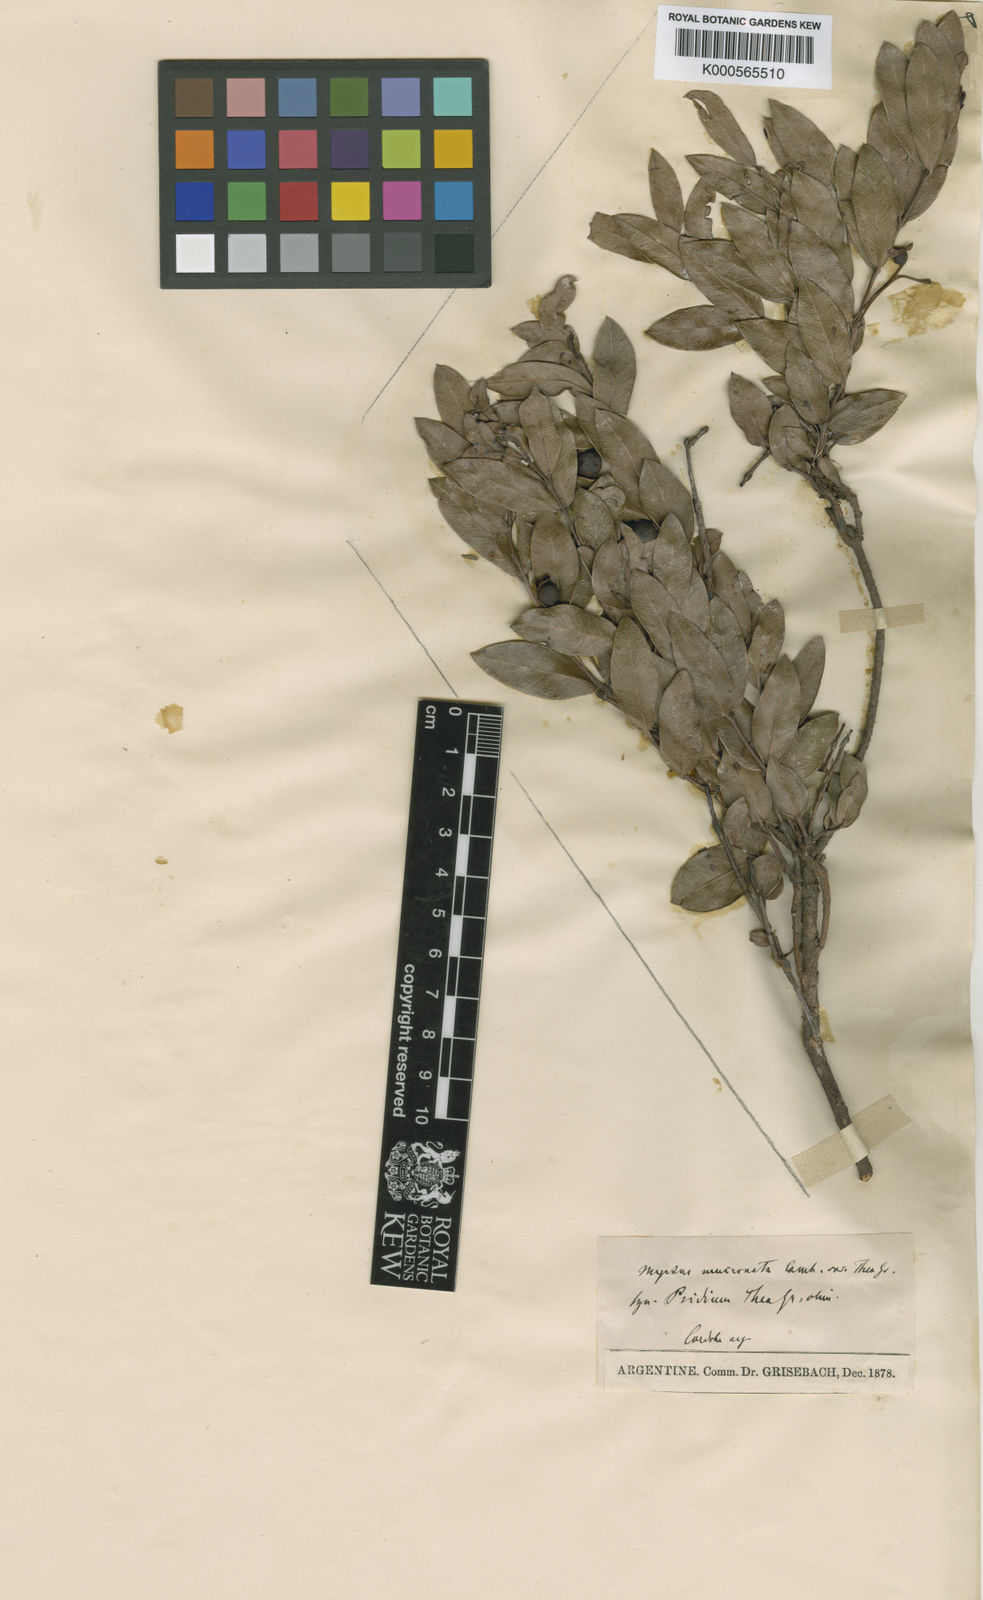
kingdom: Plantae
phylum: Tracheophyta
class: Magnoliopsida
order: Myrtales
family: Myrtaceae
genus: Psidium
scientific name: Psidium salutare
